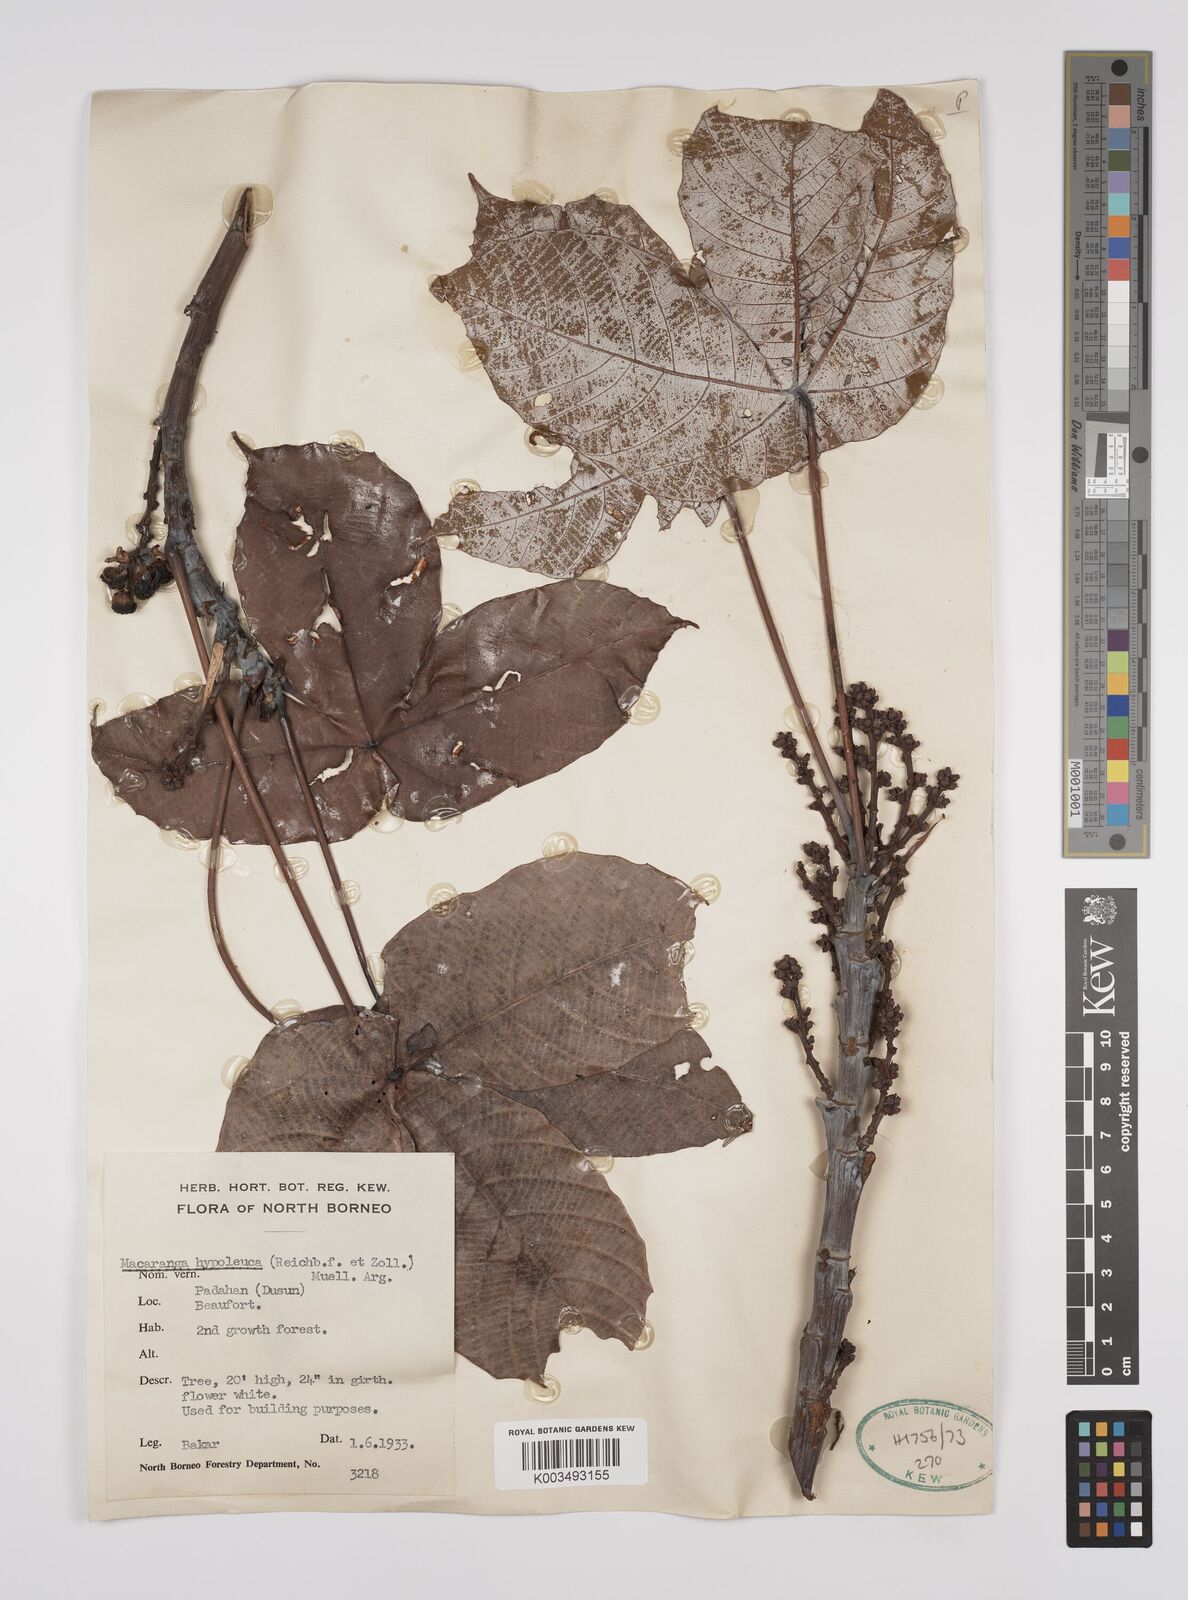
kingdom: Plantae
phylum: Tracheophyta
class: Magnoliopsida
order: Malpighiales
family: Euphorbiaceae
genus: Macaranga
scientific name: Macaranga hypoleuca
